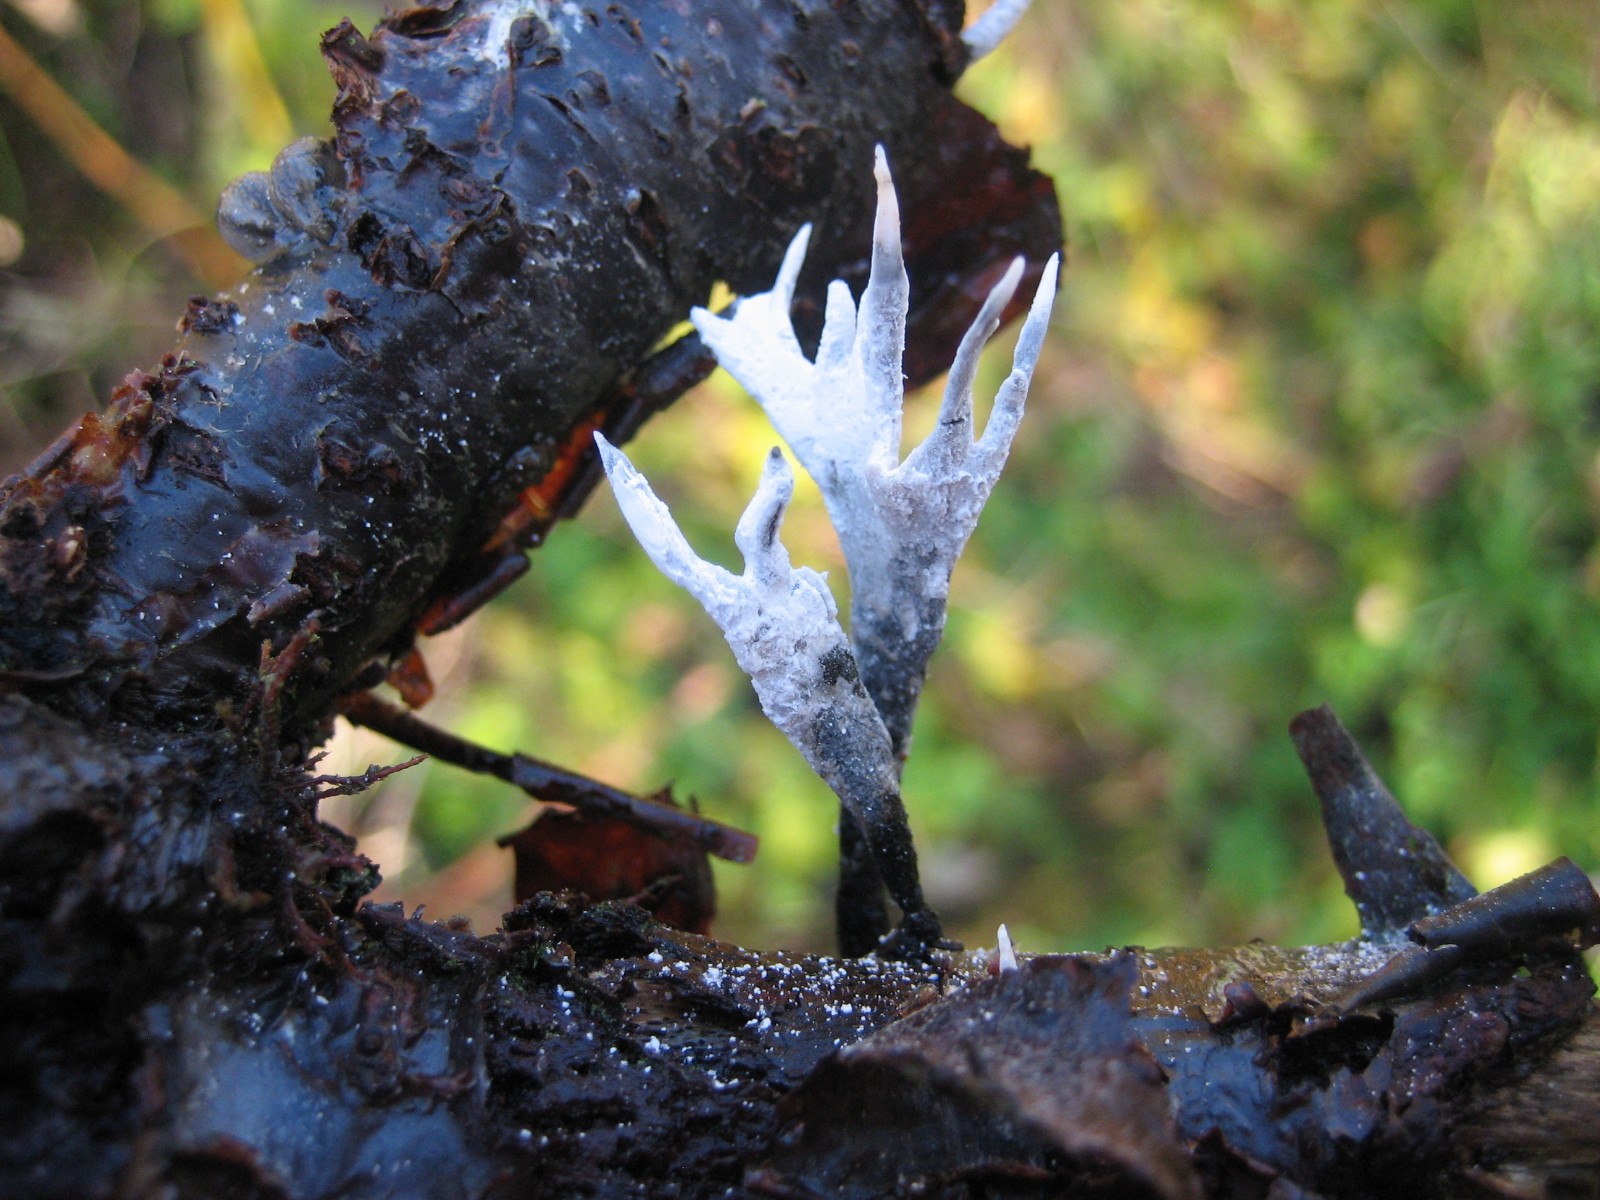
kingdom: Fungi
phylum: Ascomycota
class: Sordariomycetes
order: Xylariales
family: Xylariaceae
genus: Xylaria
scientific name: Xylaria hypoxylon
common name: grenet stødsvamp
